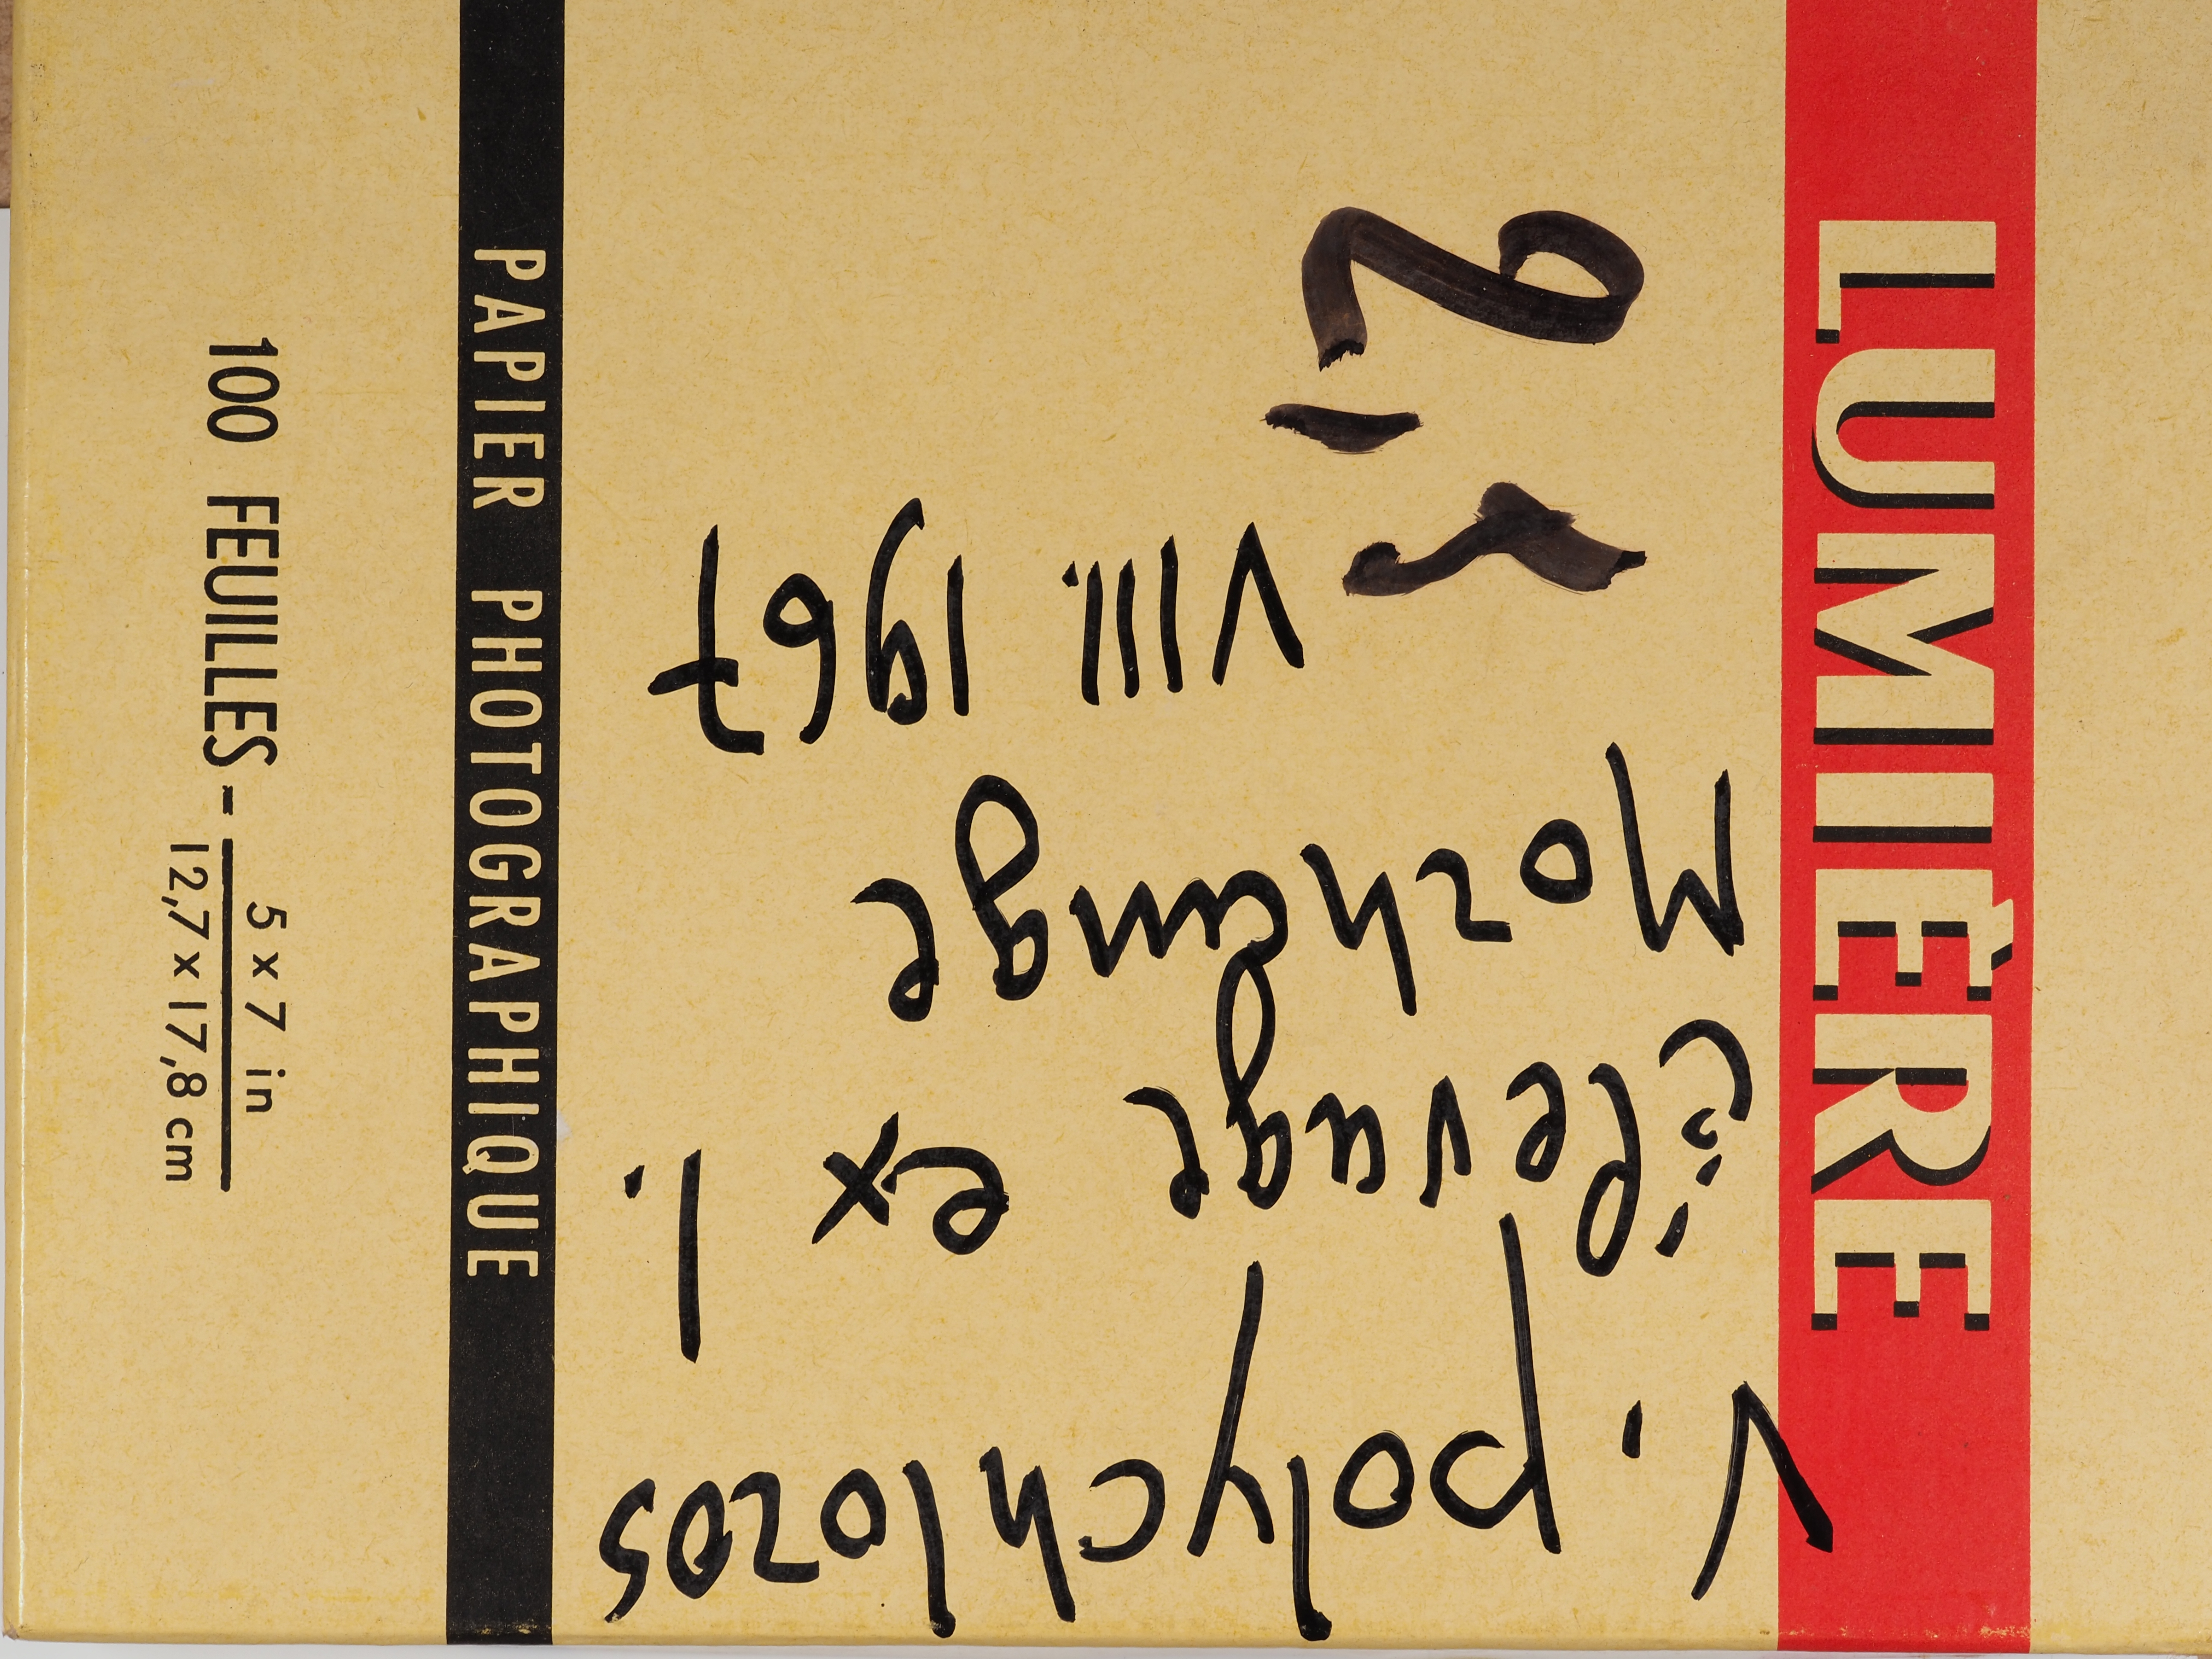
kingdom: Animalia
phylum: Arthropoda
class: Insecta
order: Lepidoptera
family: Nymphalidae
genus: Nymphalis
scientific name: Nymphalis polychloros
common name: Large tortoiseshell
